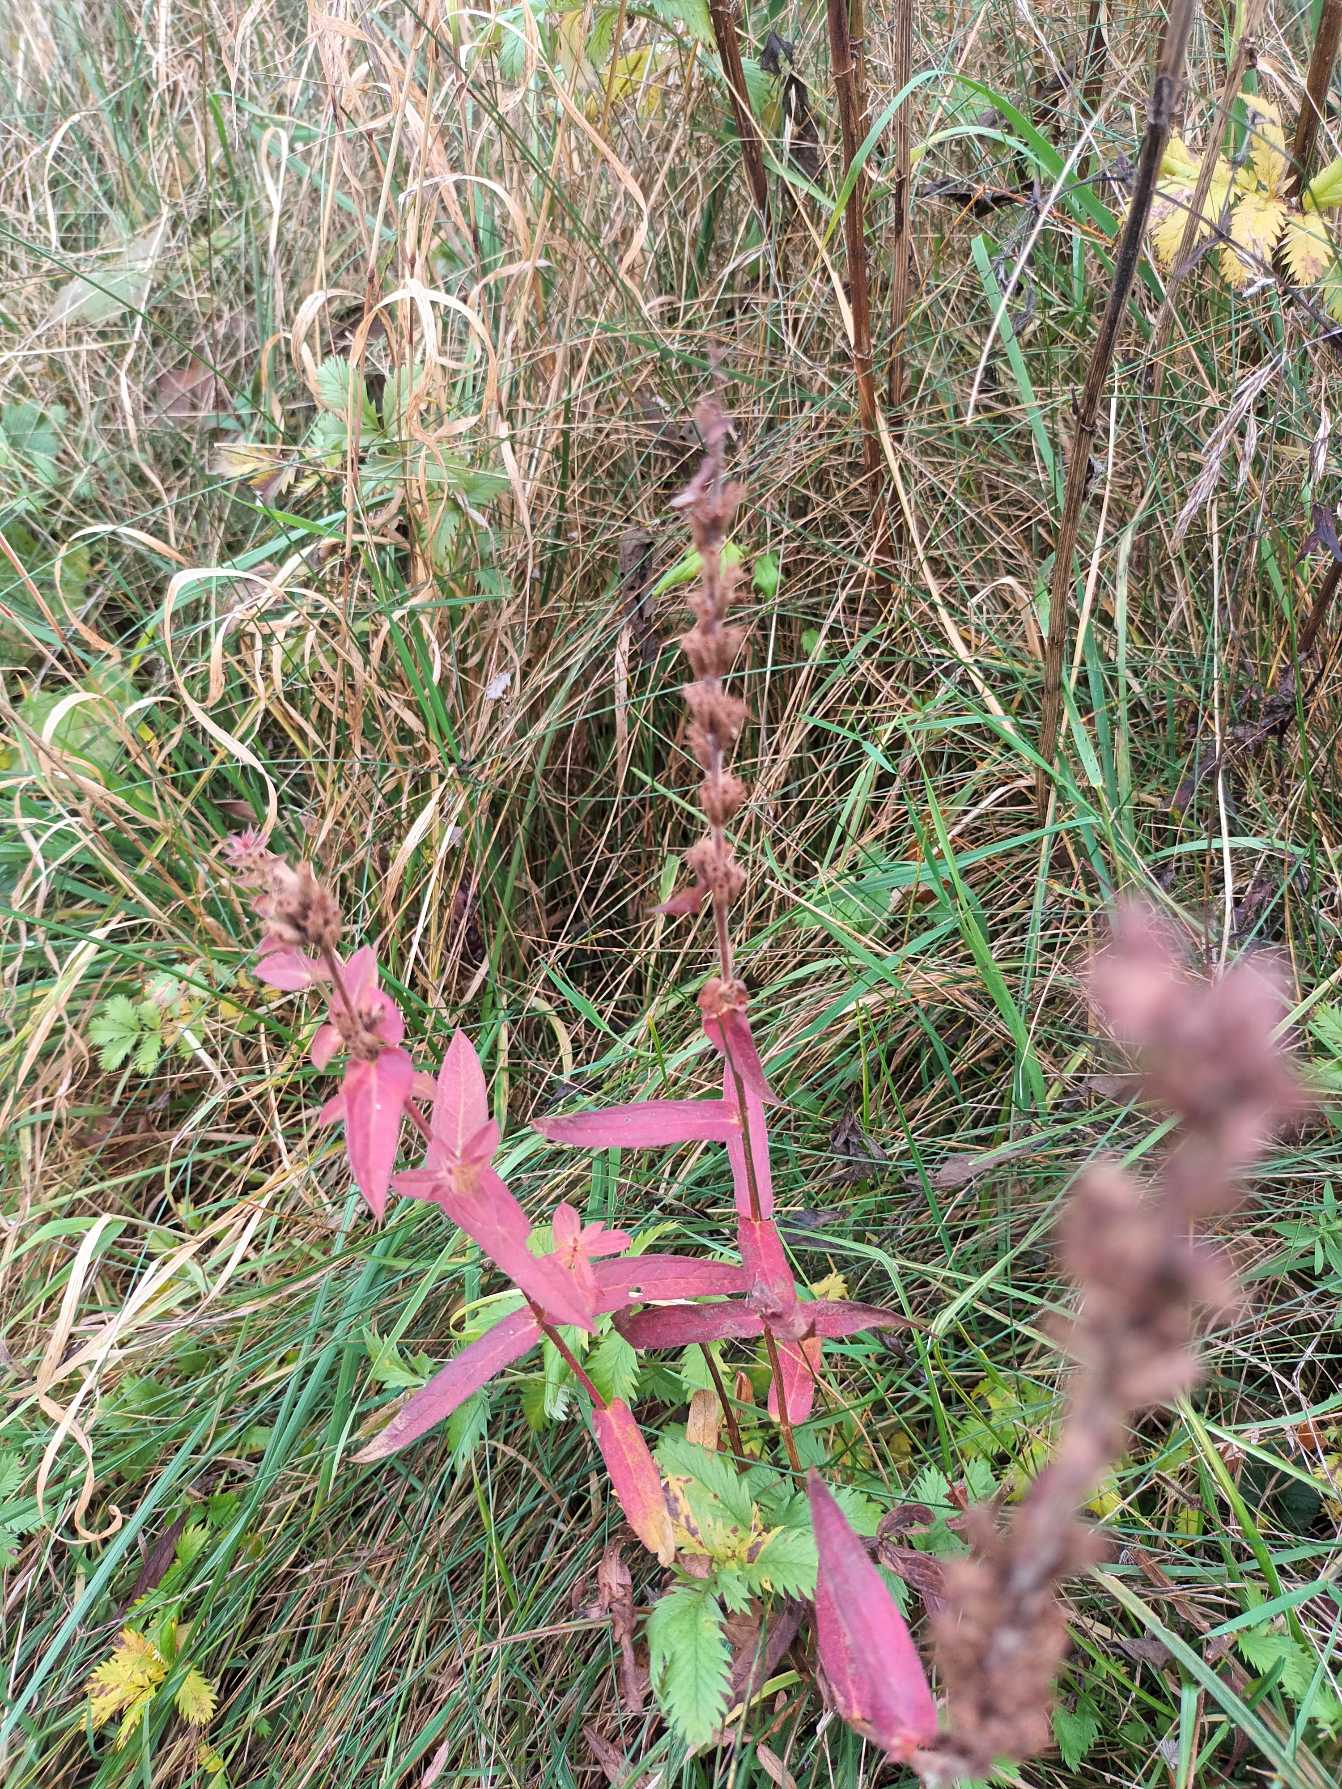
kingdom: Plantae
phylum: Tracheophyta
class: Magnoliopsida
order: Myrtales
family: Lythraceae
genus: Lythrum
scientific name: Lythrum salicaria
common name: Kattehale
